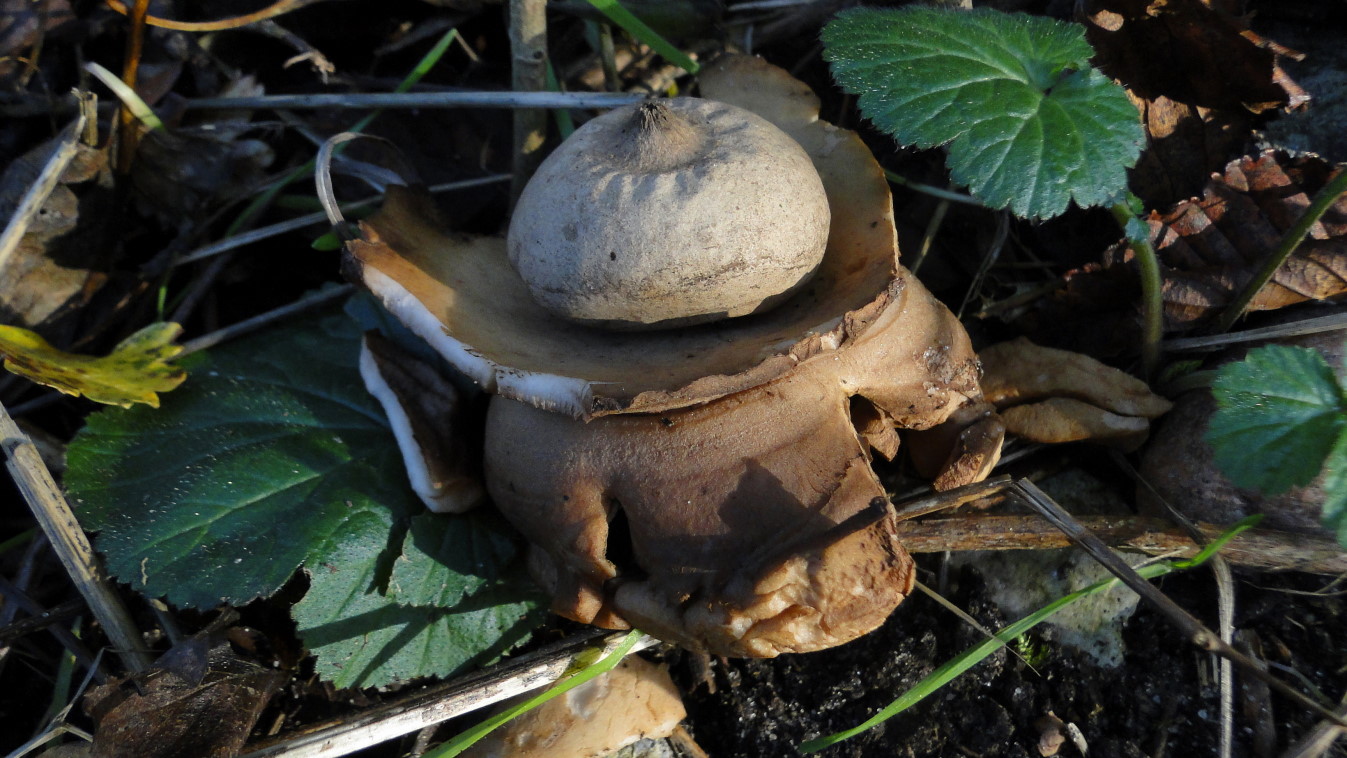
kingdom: Fungi
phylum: Basidiomycota
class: Agaricomycetes
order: Geastrales
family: Geastraceae
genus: Geastrum
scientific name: Geastrum michelianum
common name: kødet stjernebold
